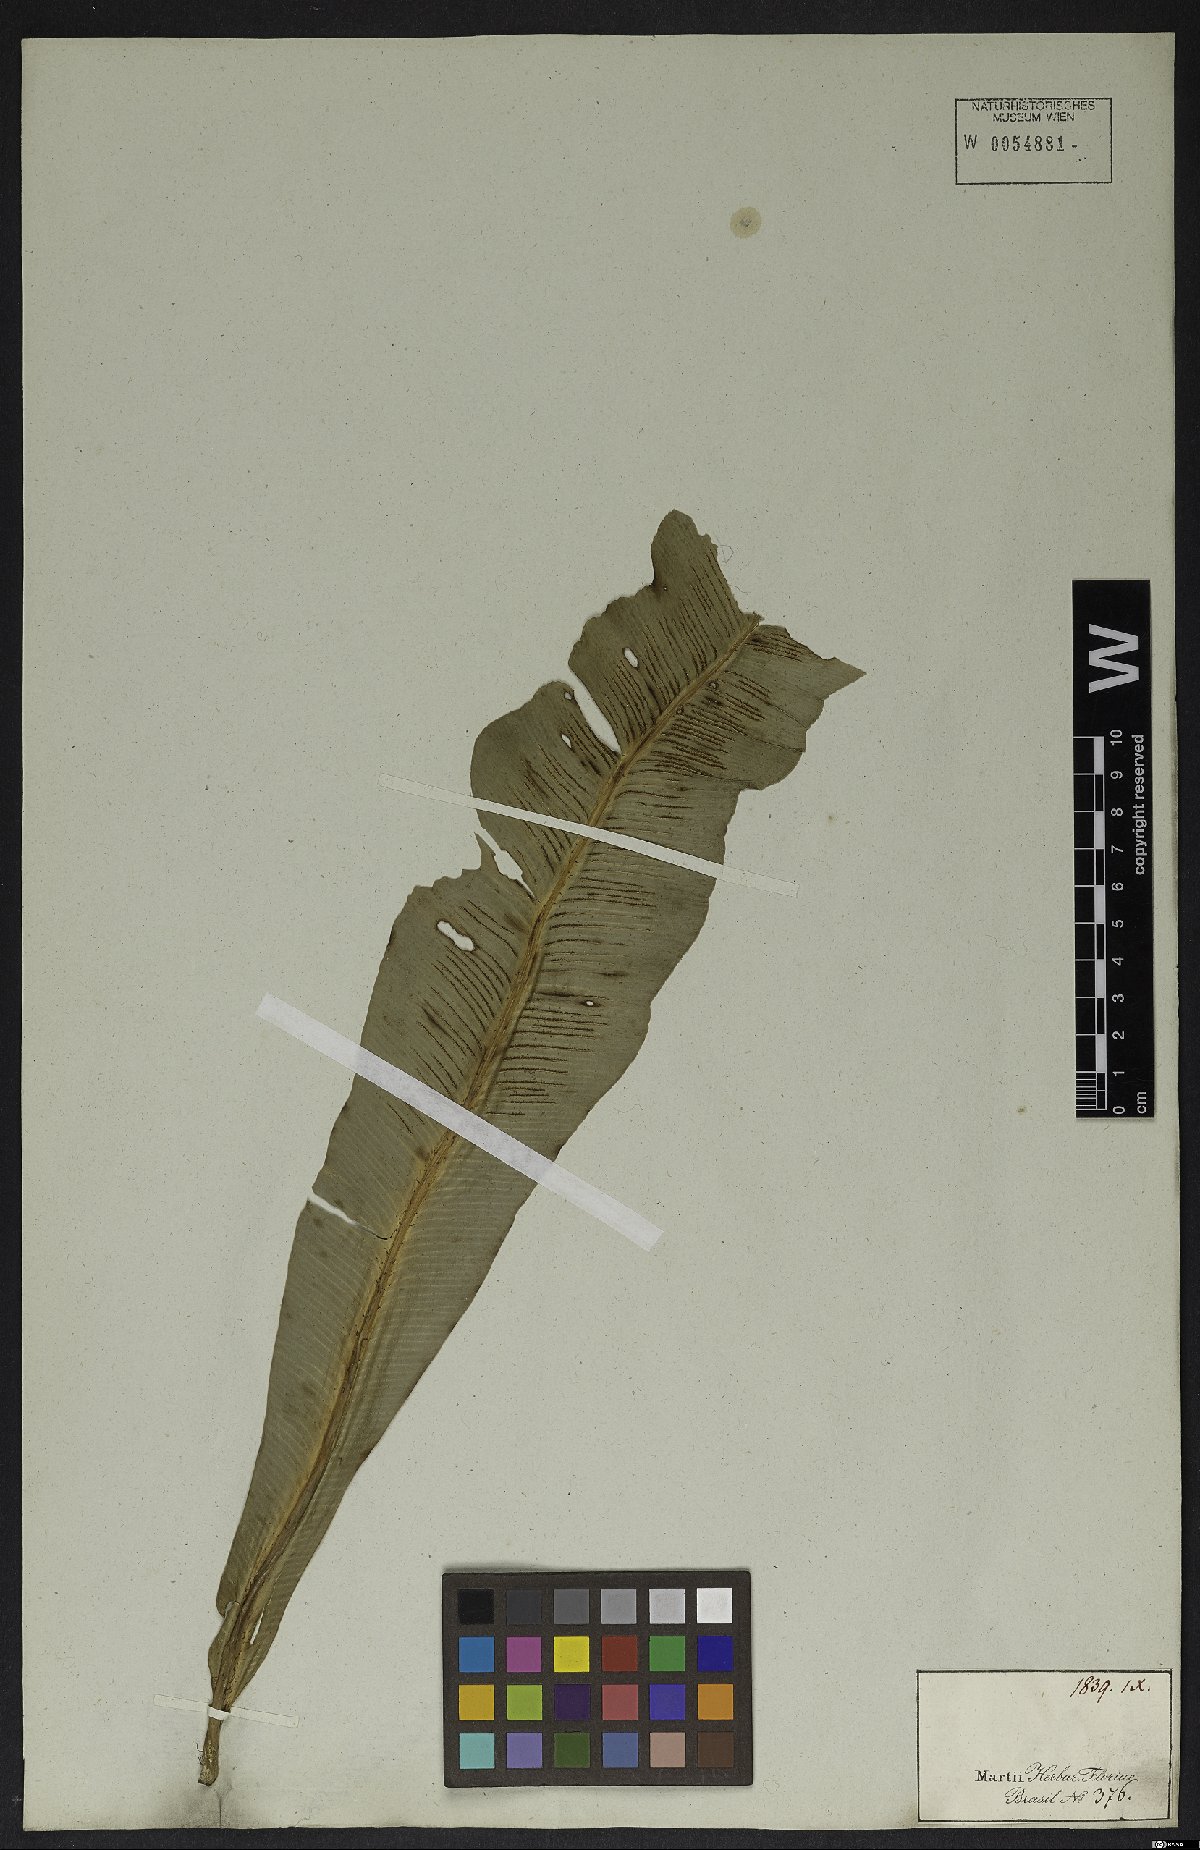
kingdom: Plantae
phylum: Tracheophyta
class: Polypodiopsida
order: Polypodiales
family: Aspleniaceae
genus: Asplenium
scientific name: Asplenium serratum
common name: Wild birdnest fern
